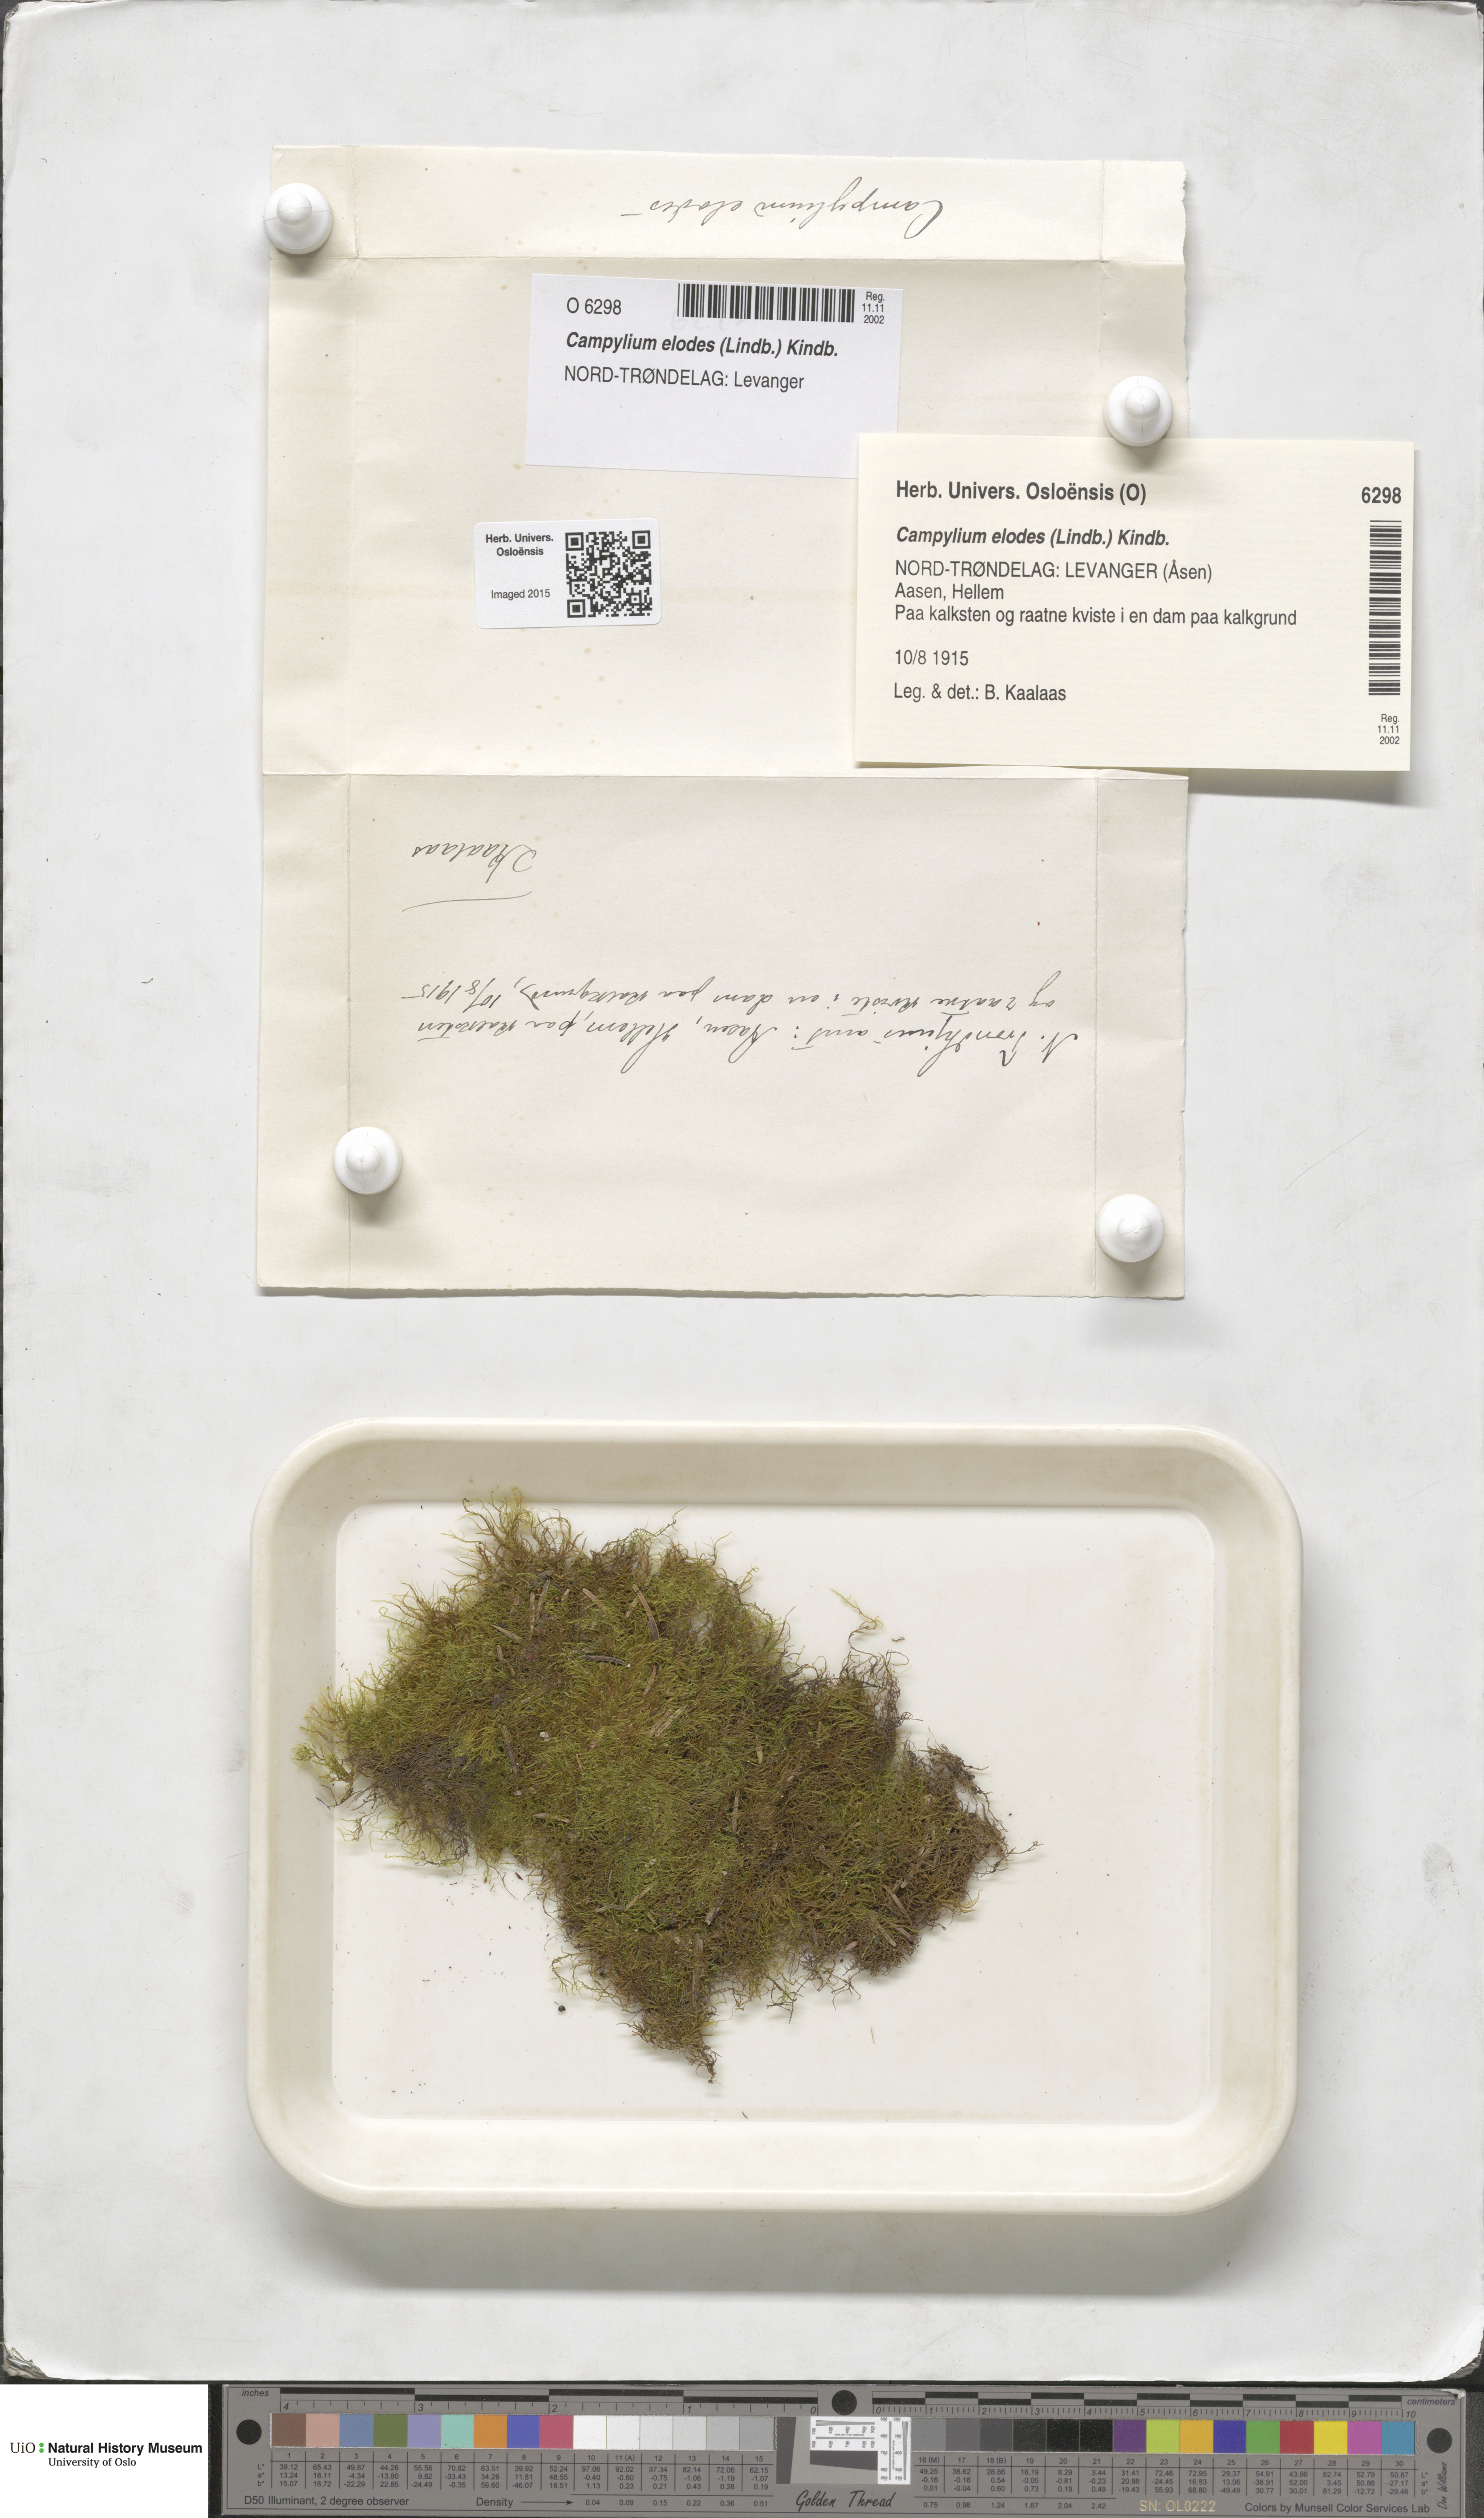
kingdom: Plantae
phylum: Bryophyta
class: Bryopsida
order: Hypnales
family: Amblystegiaceae
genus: Kandaea
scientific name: Kandaea elodes
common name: Fine-leaved marsh feather-moss
